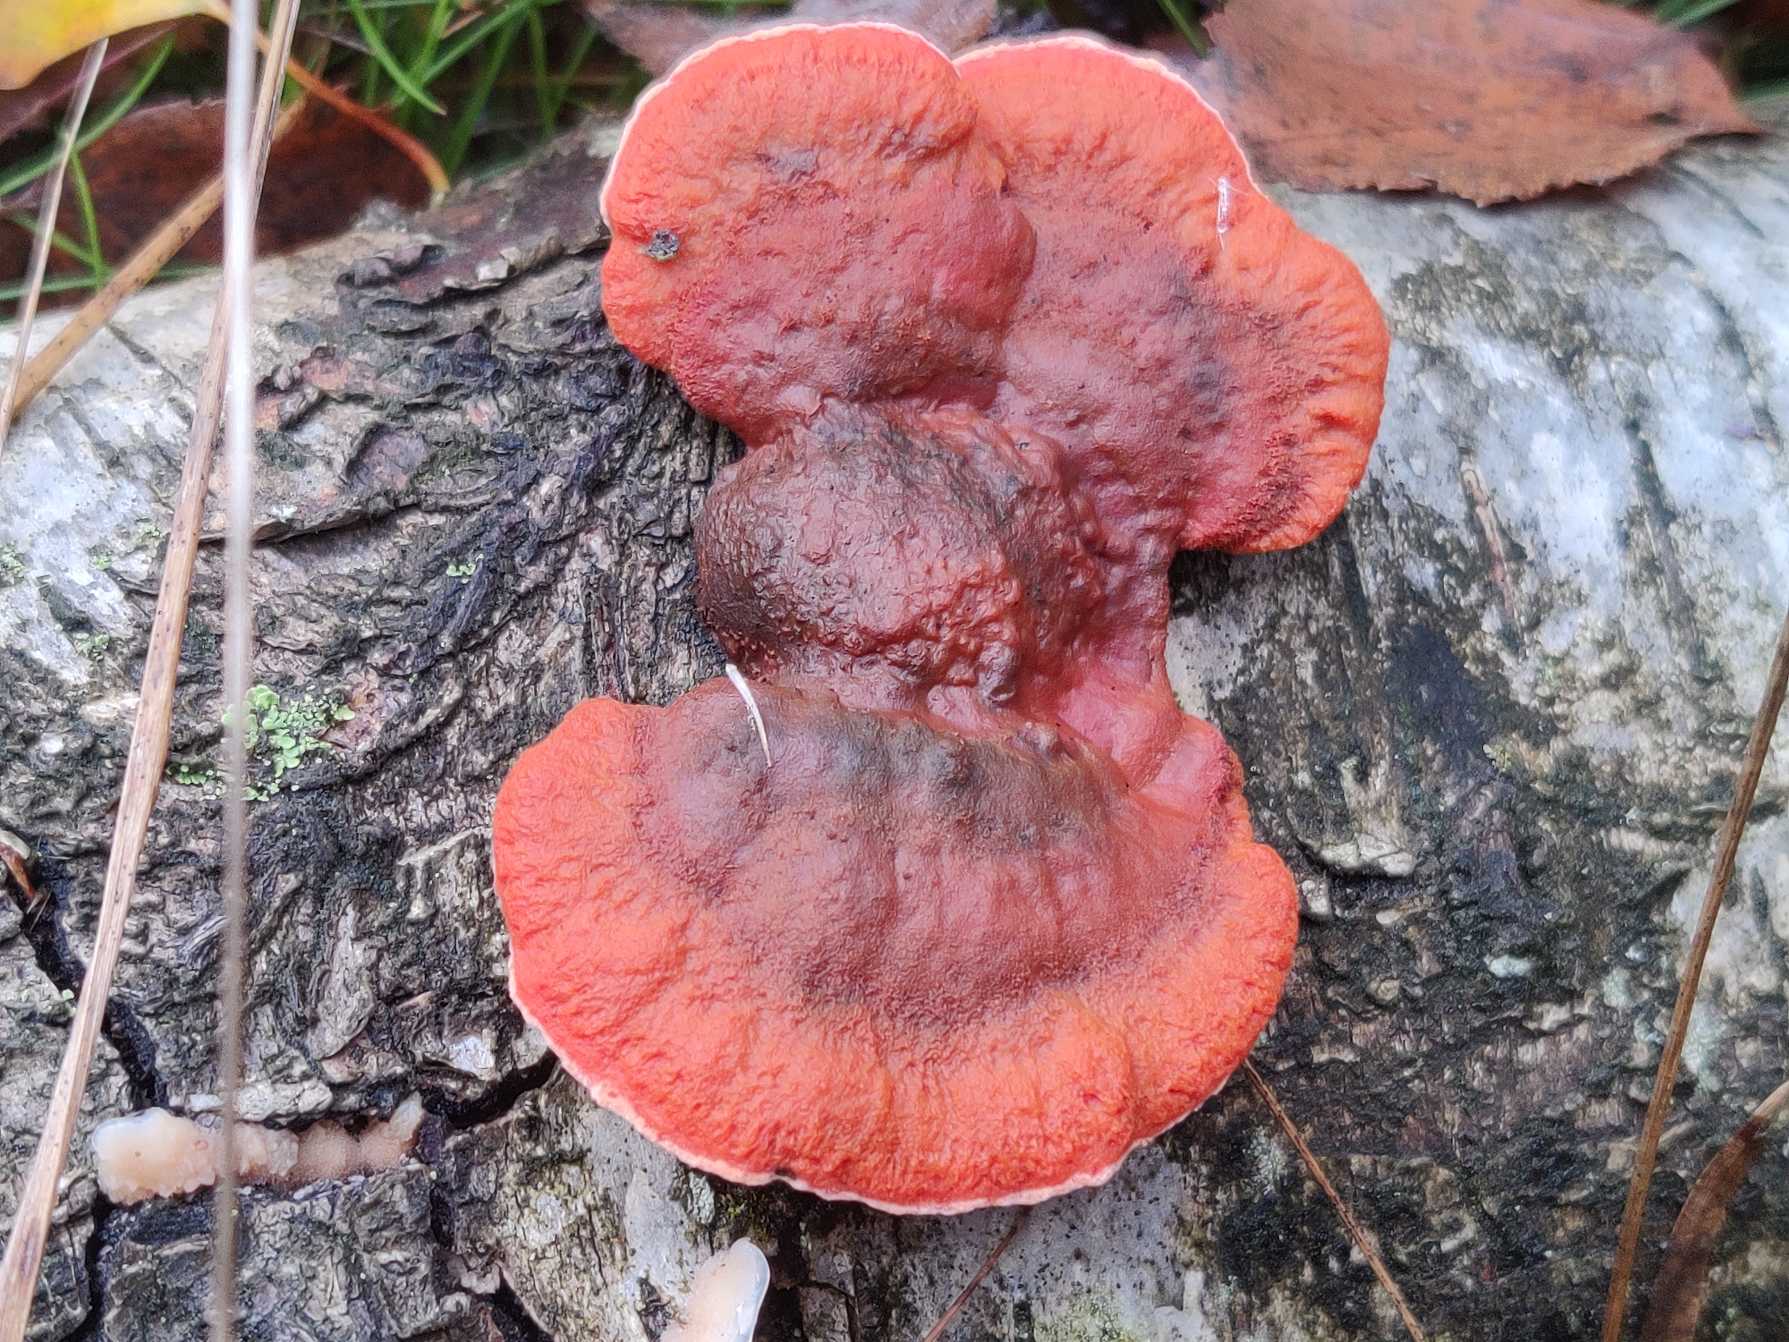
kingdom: Fungi
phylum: Basidiomycota
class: Agaricomycetes
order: Polyporales
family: Polyporaceae
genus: Trametes
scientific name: Trametes cinnabarina
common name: Cinnoberporesvamp
